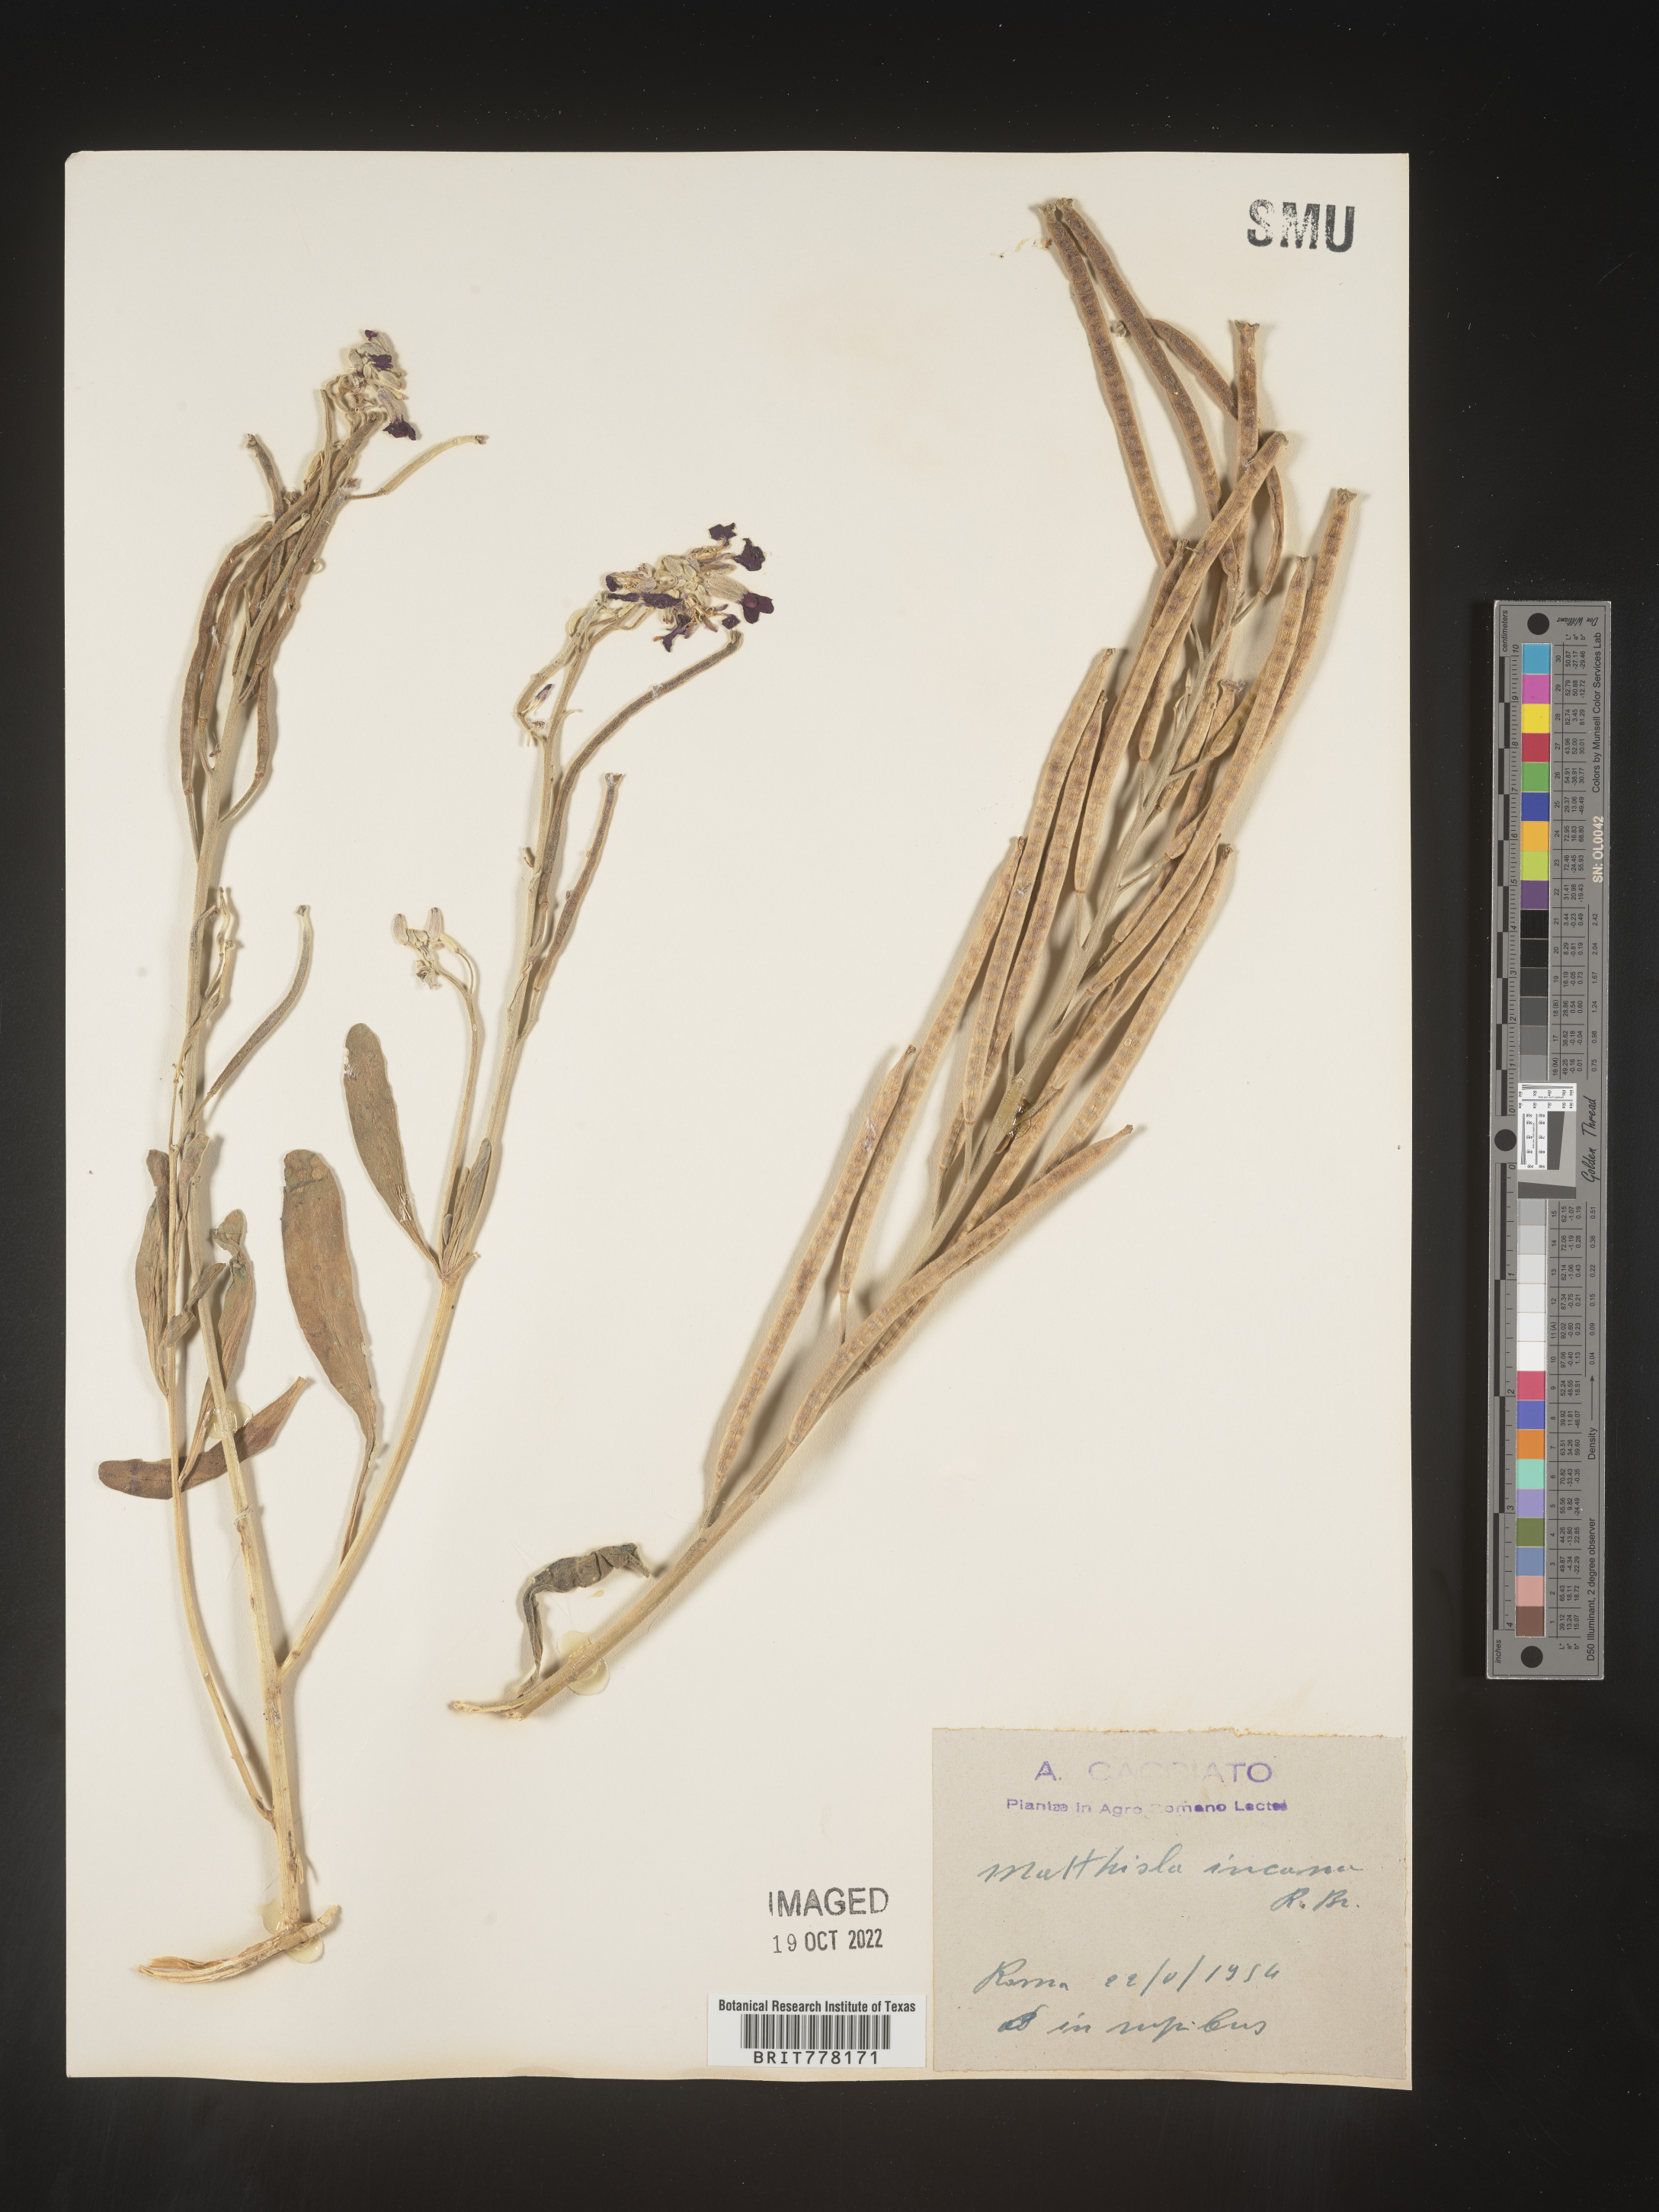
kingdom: Plantae
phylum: Tracheophyta
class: Magnoliopsida
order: Brassicales
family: Brassicaceae
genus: Matthiola
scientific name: Matthiola
